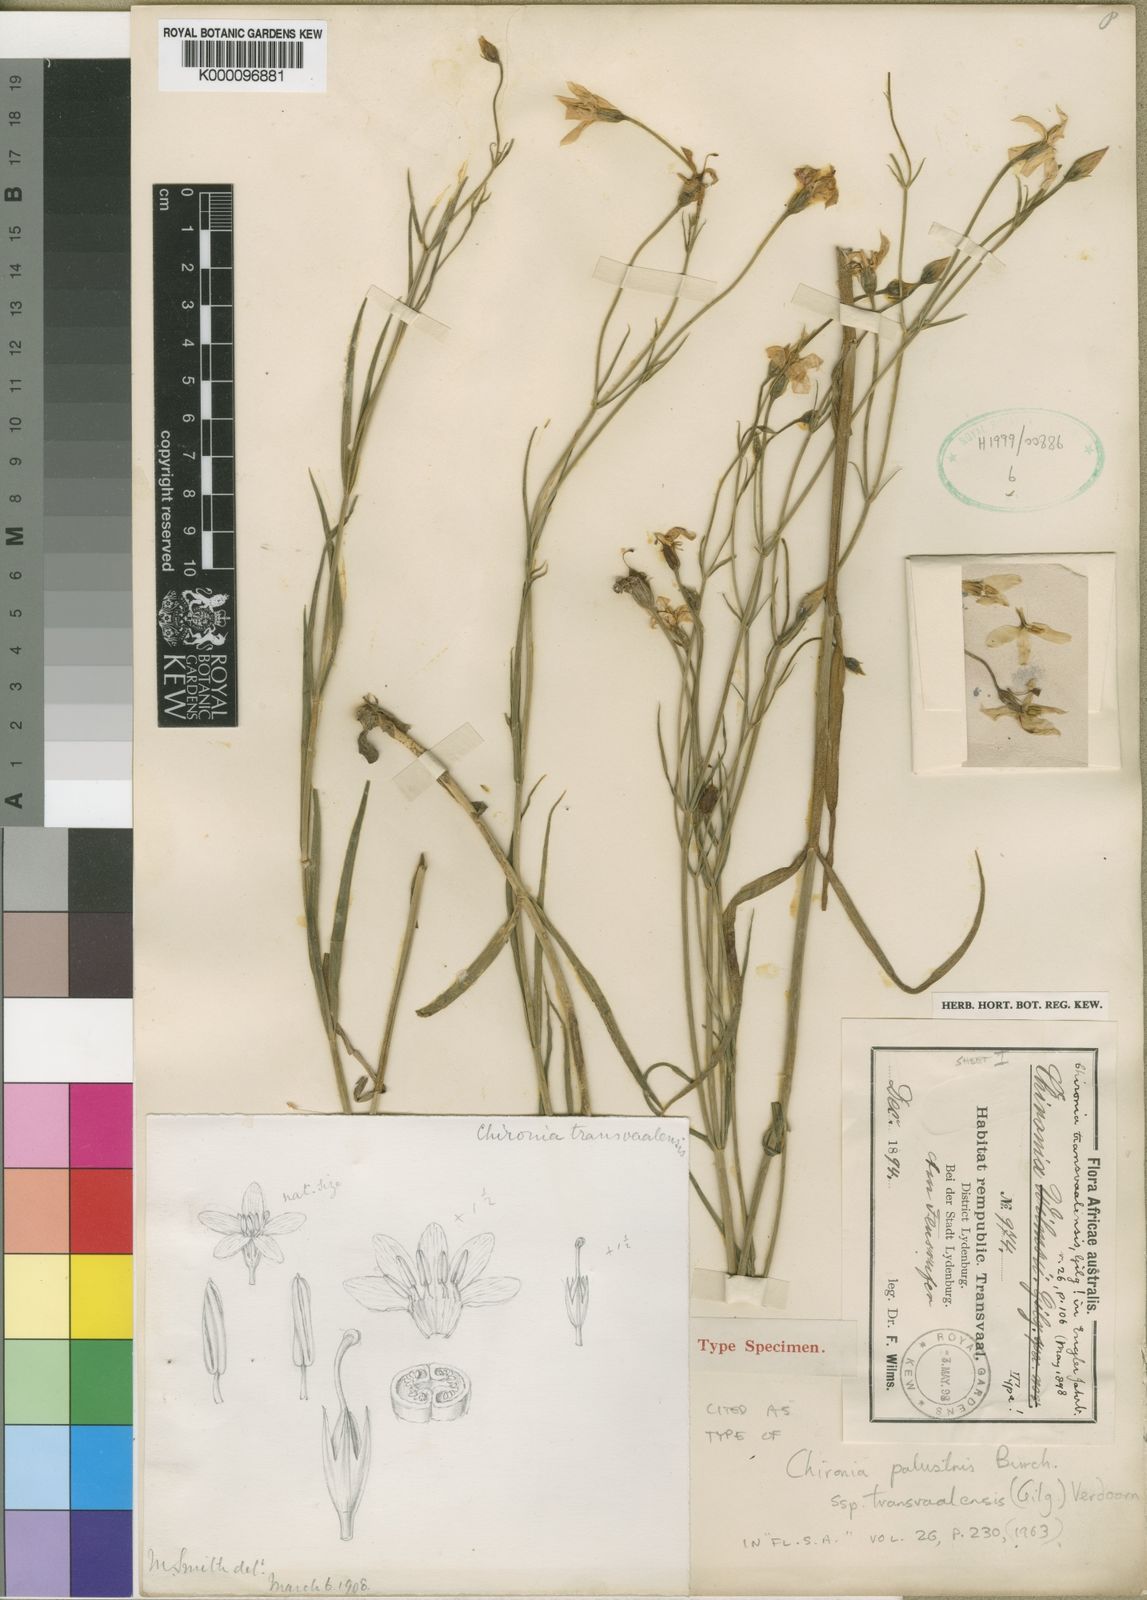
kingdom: Plantae
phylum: Tracheophyta
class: Magnoliopsida
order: Gentianales
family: Gentianaceae
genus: Chironia
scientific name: Chironia palustris
